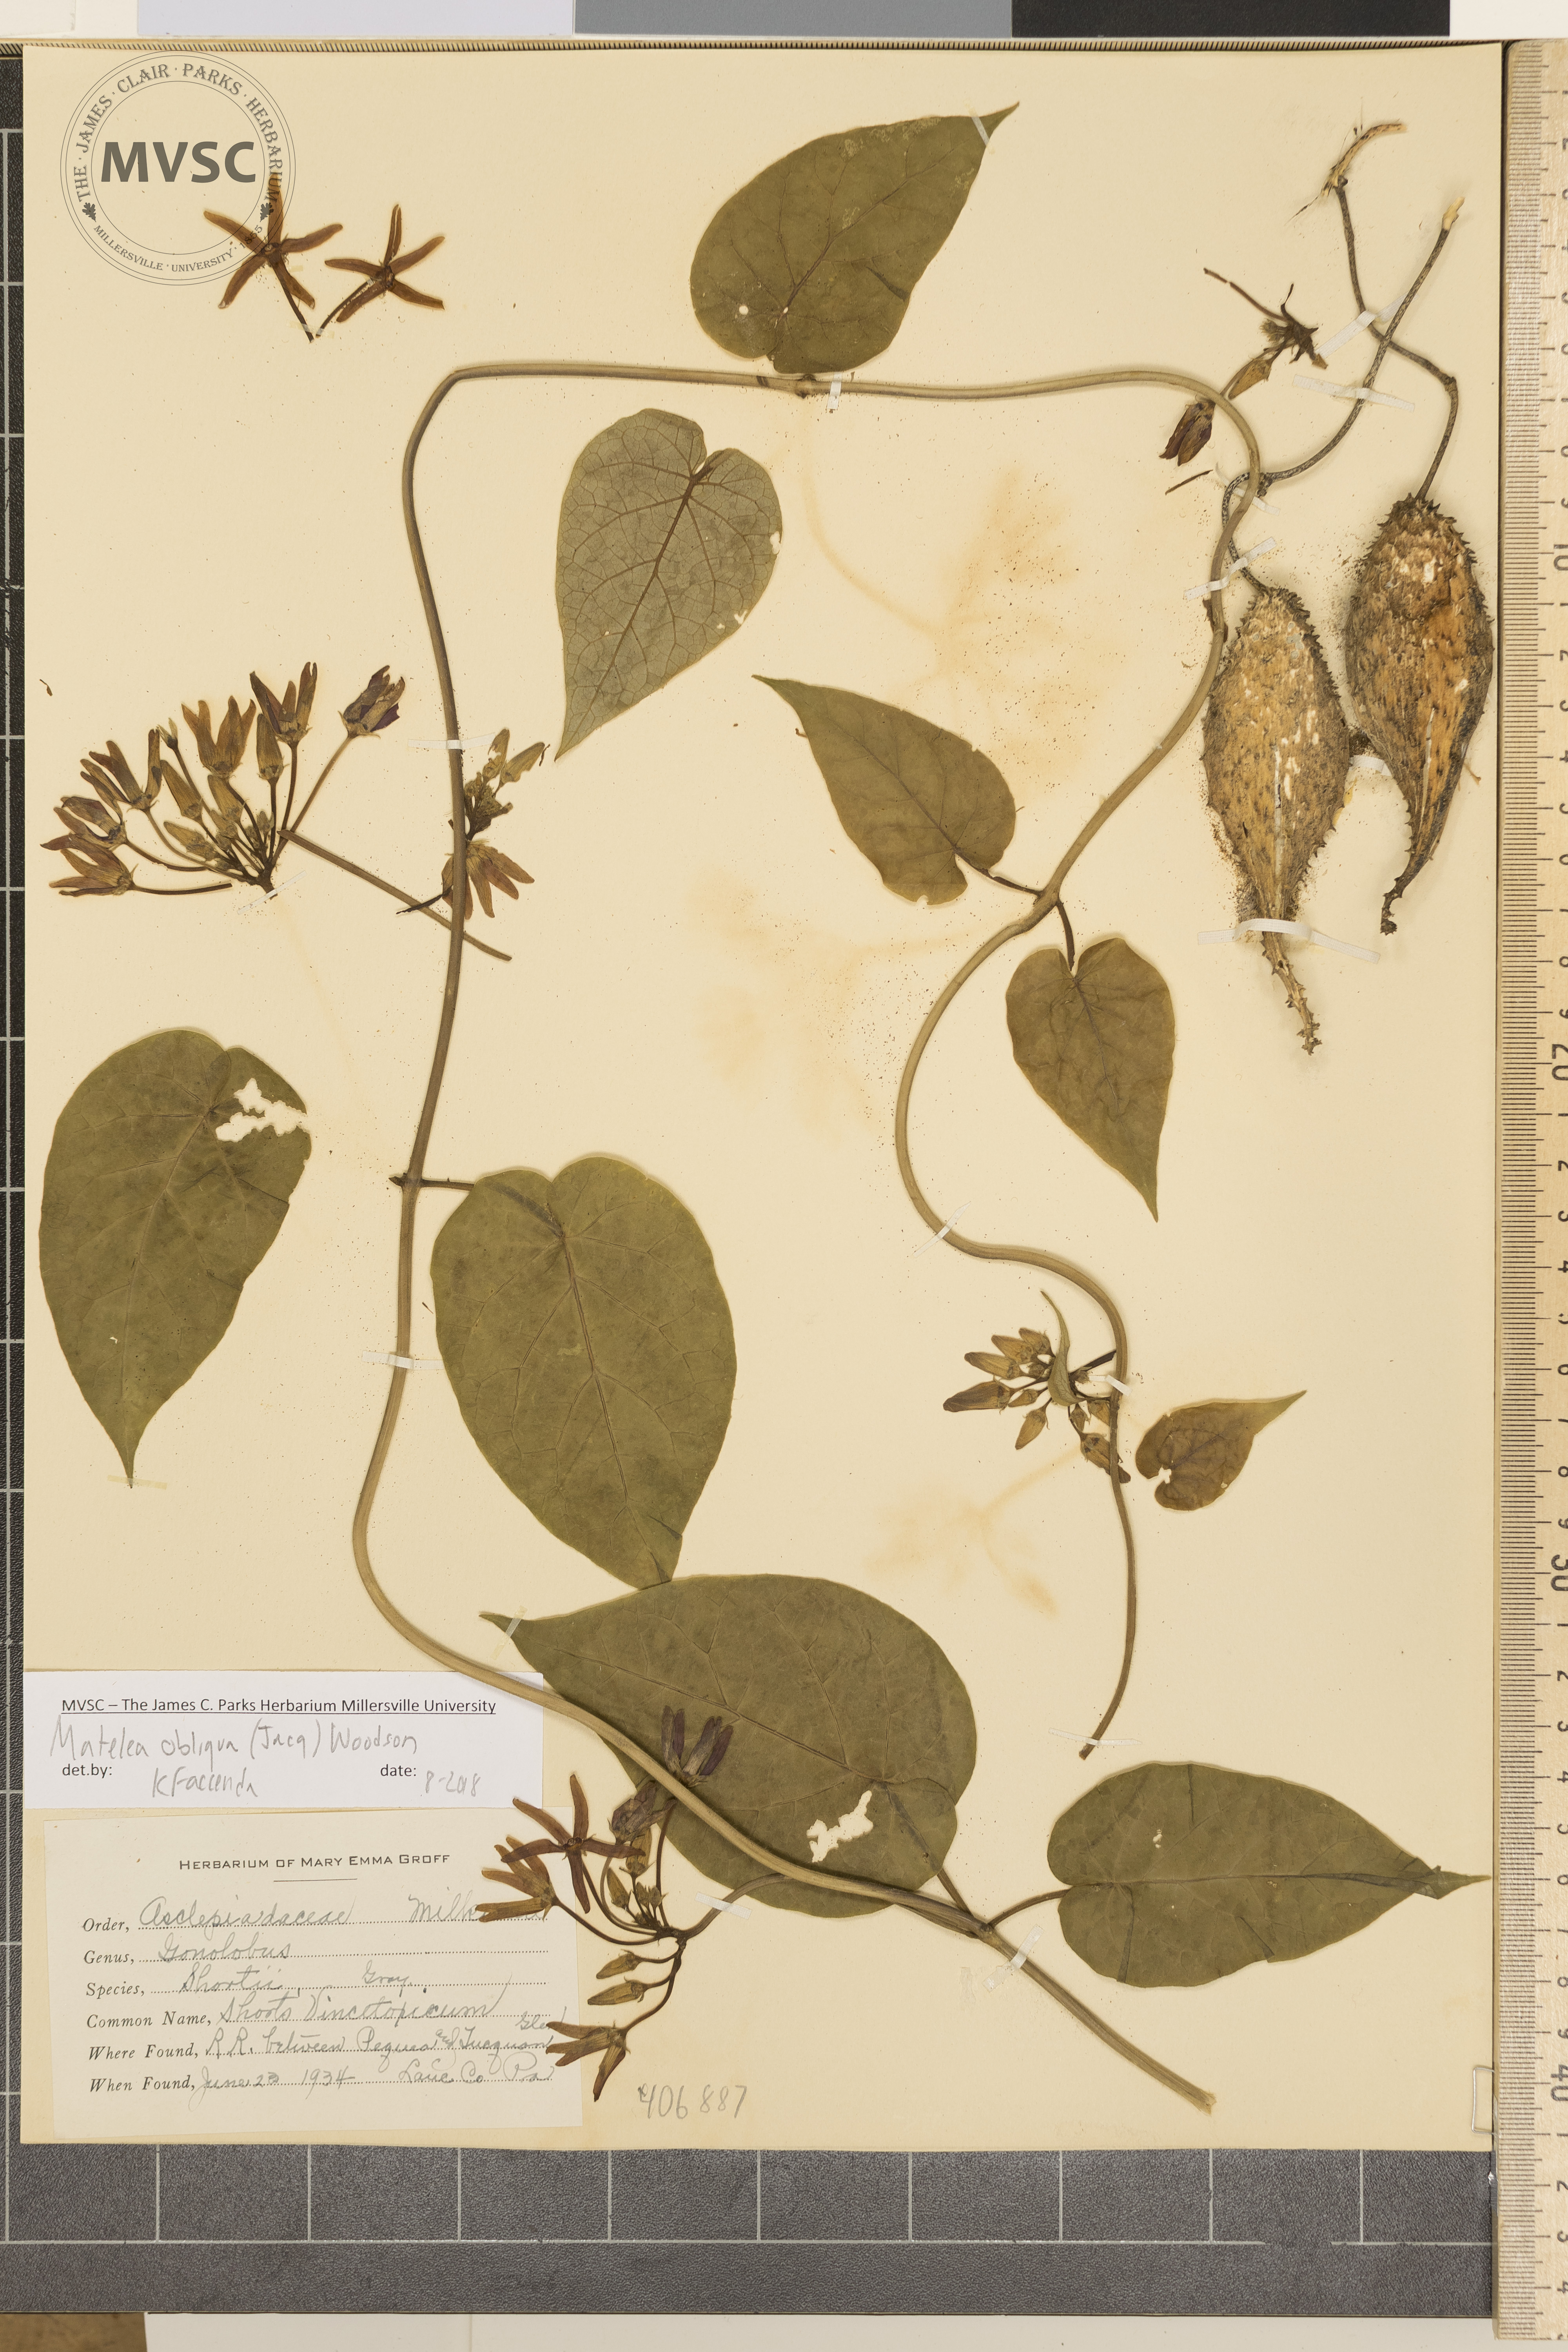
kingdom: Plantae
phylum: Tracheophyta
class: Magnoliopsida
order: Gentianales
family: Apocynaceae
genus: Matelea
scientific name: Matelea obliqua
